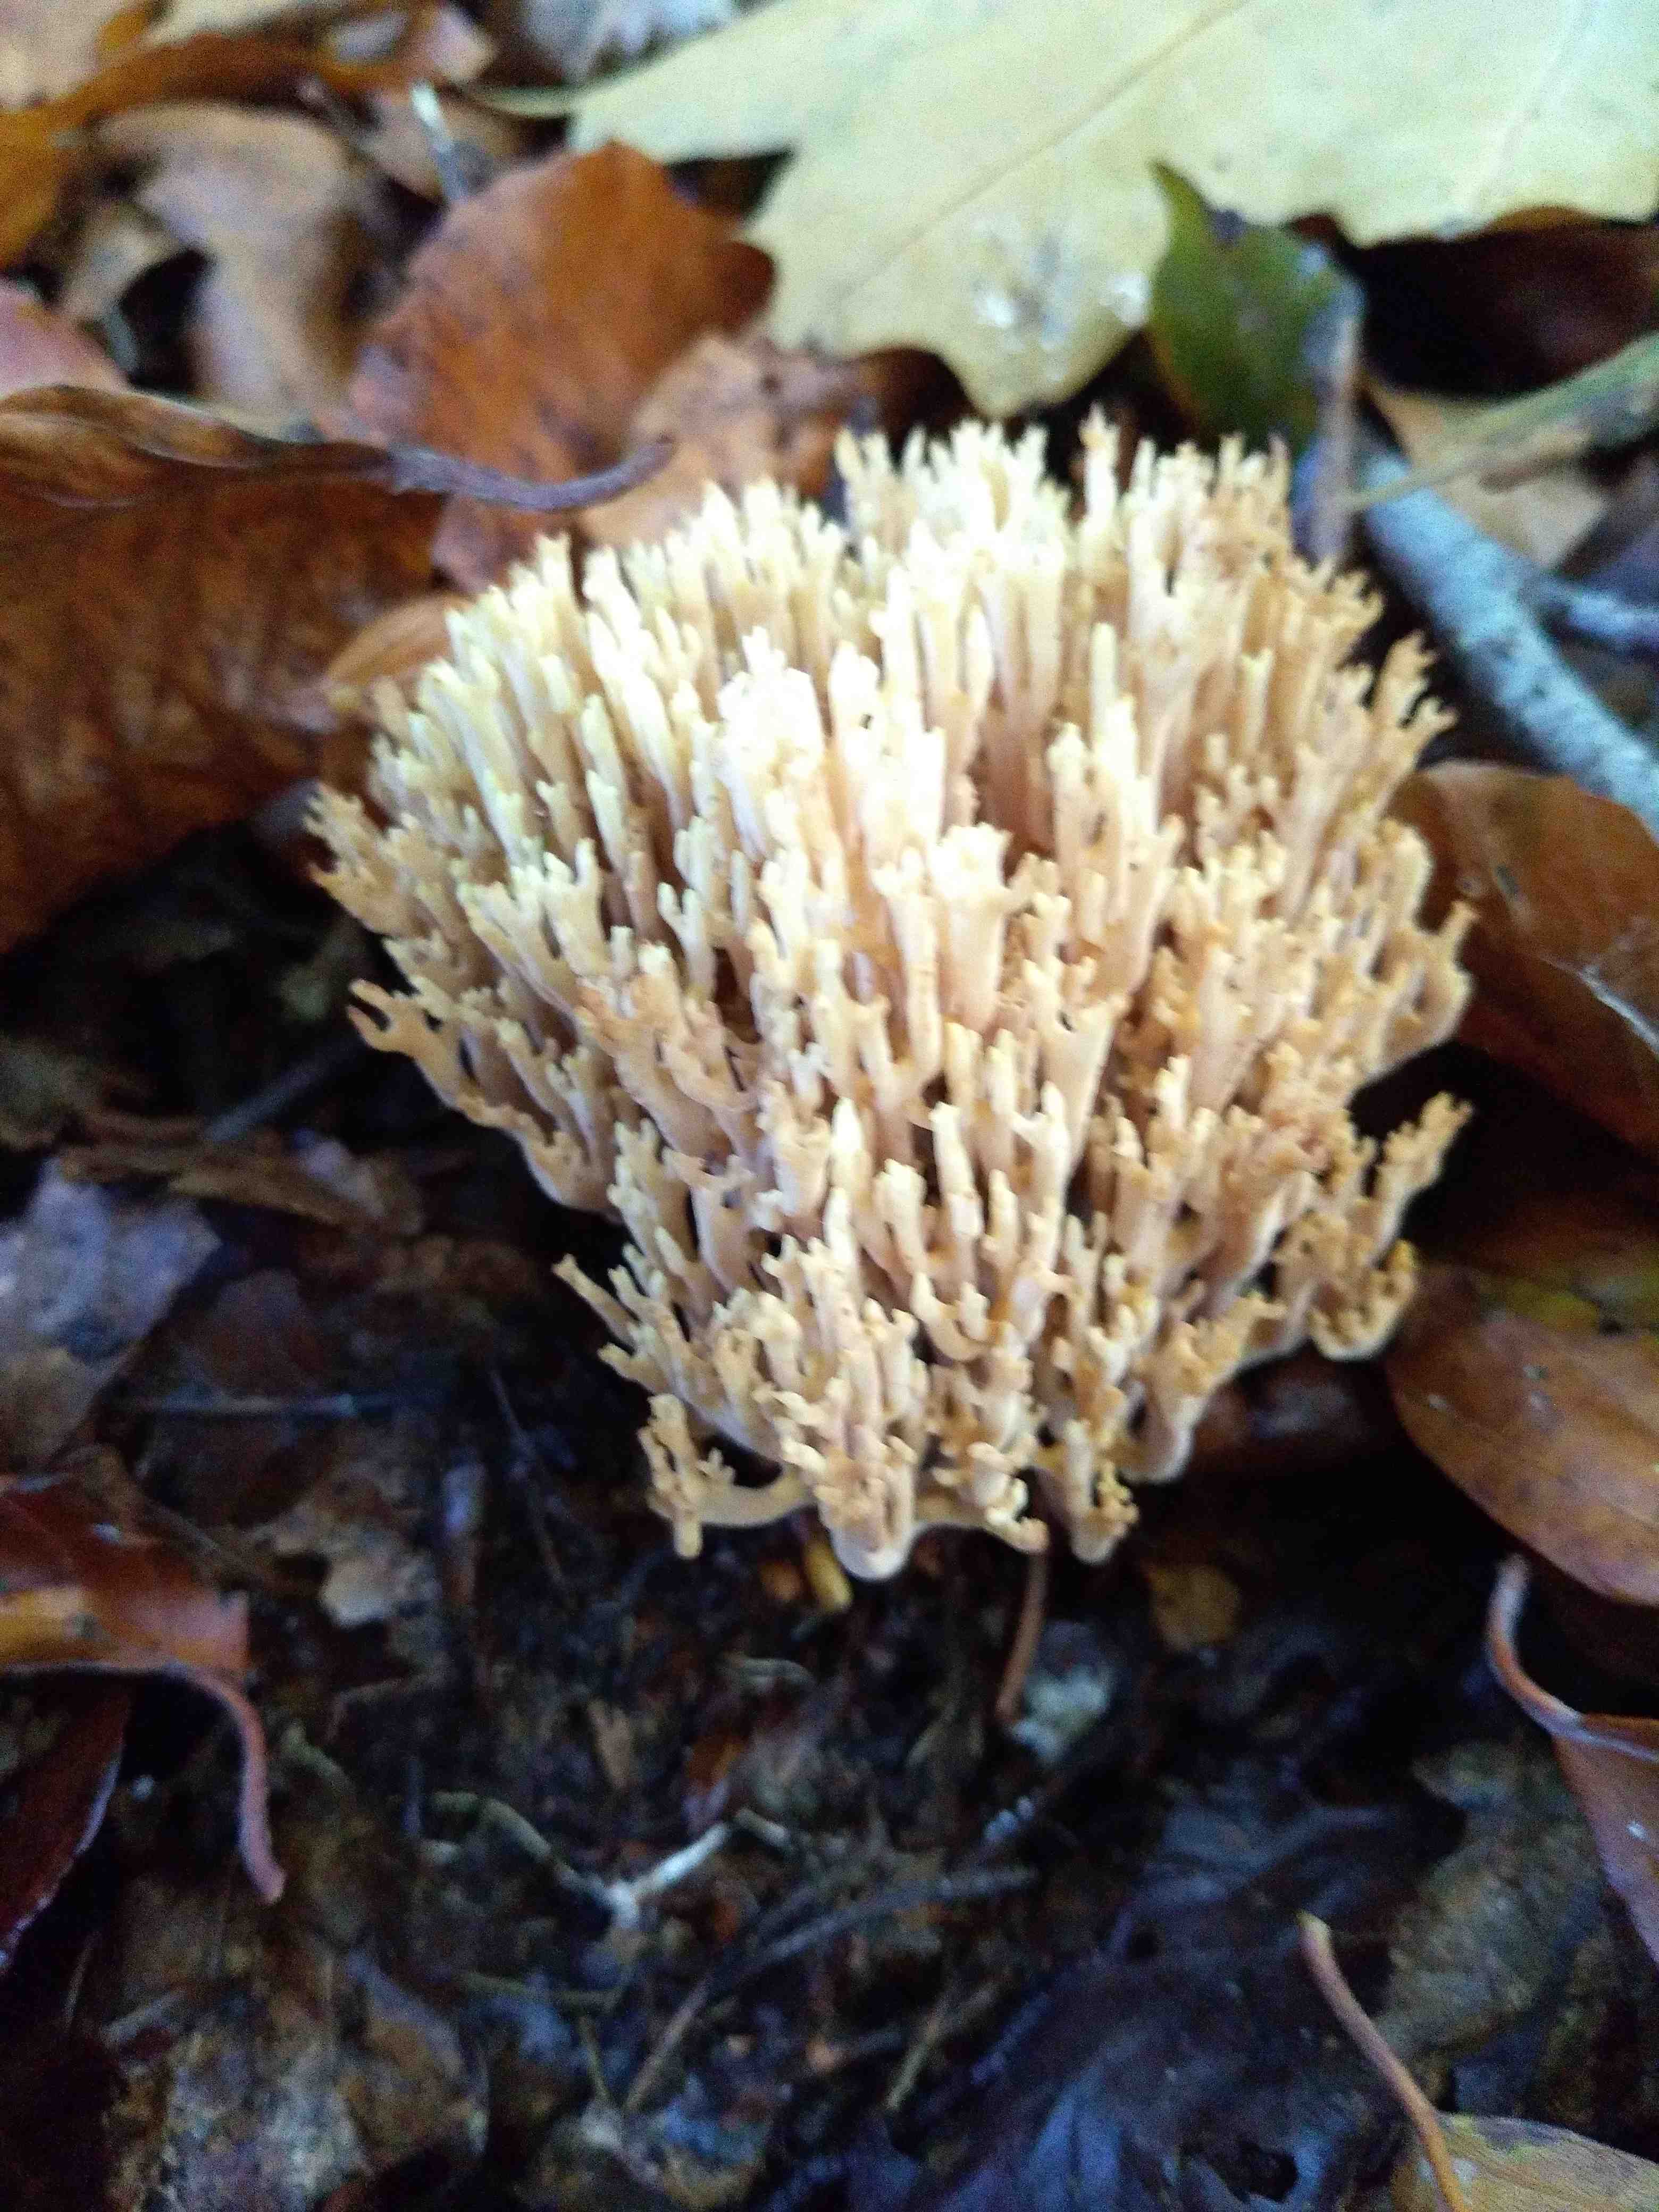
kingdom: Fungi
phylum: Basidiomycota
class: Agaricomycetes
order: Gomphales
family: Gomphaceae
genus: Ramaria
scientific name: Ramaria stricta
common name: rank koralsvamp
